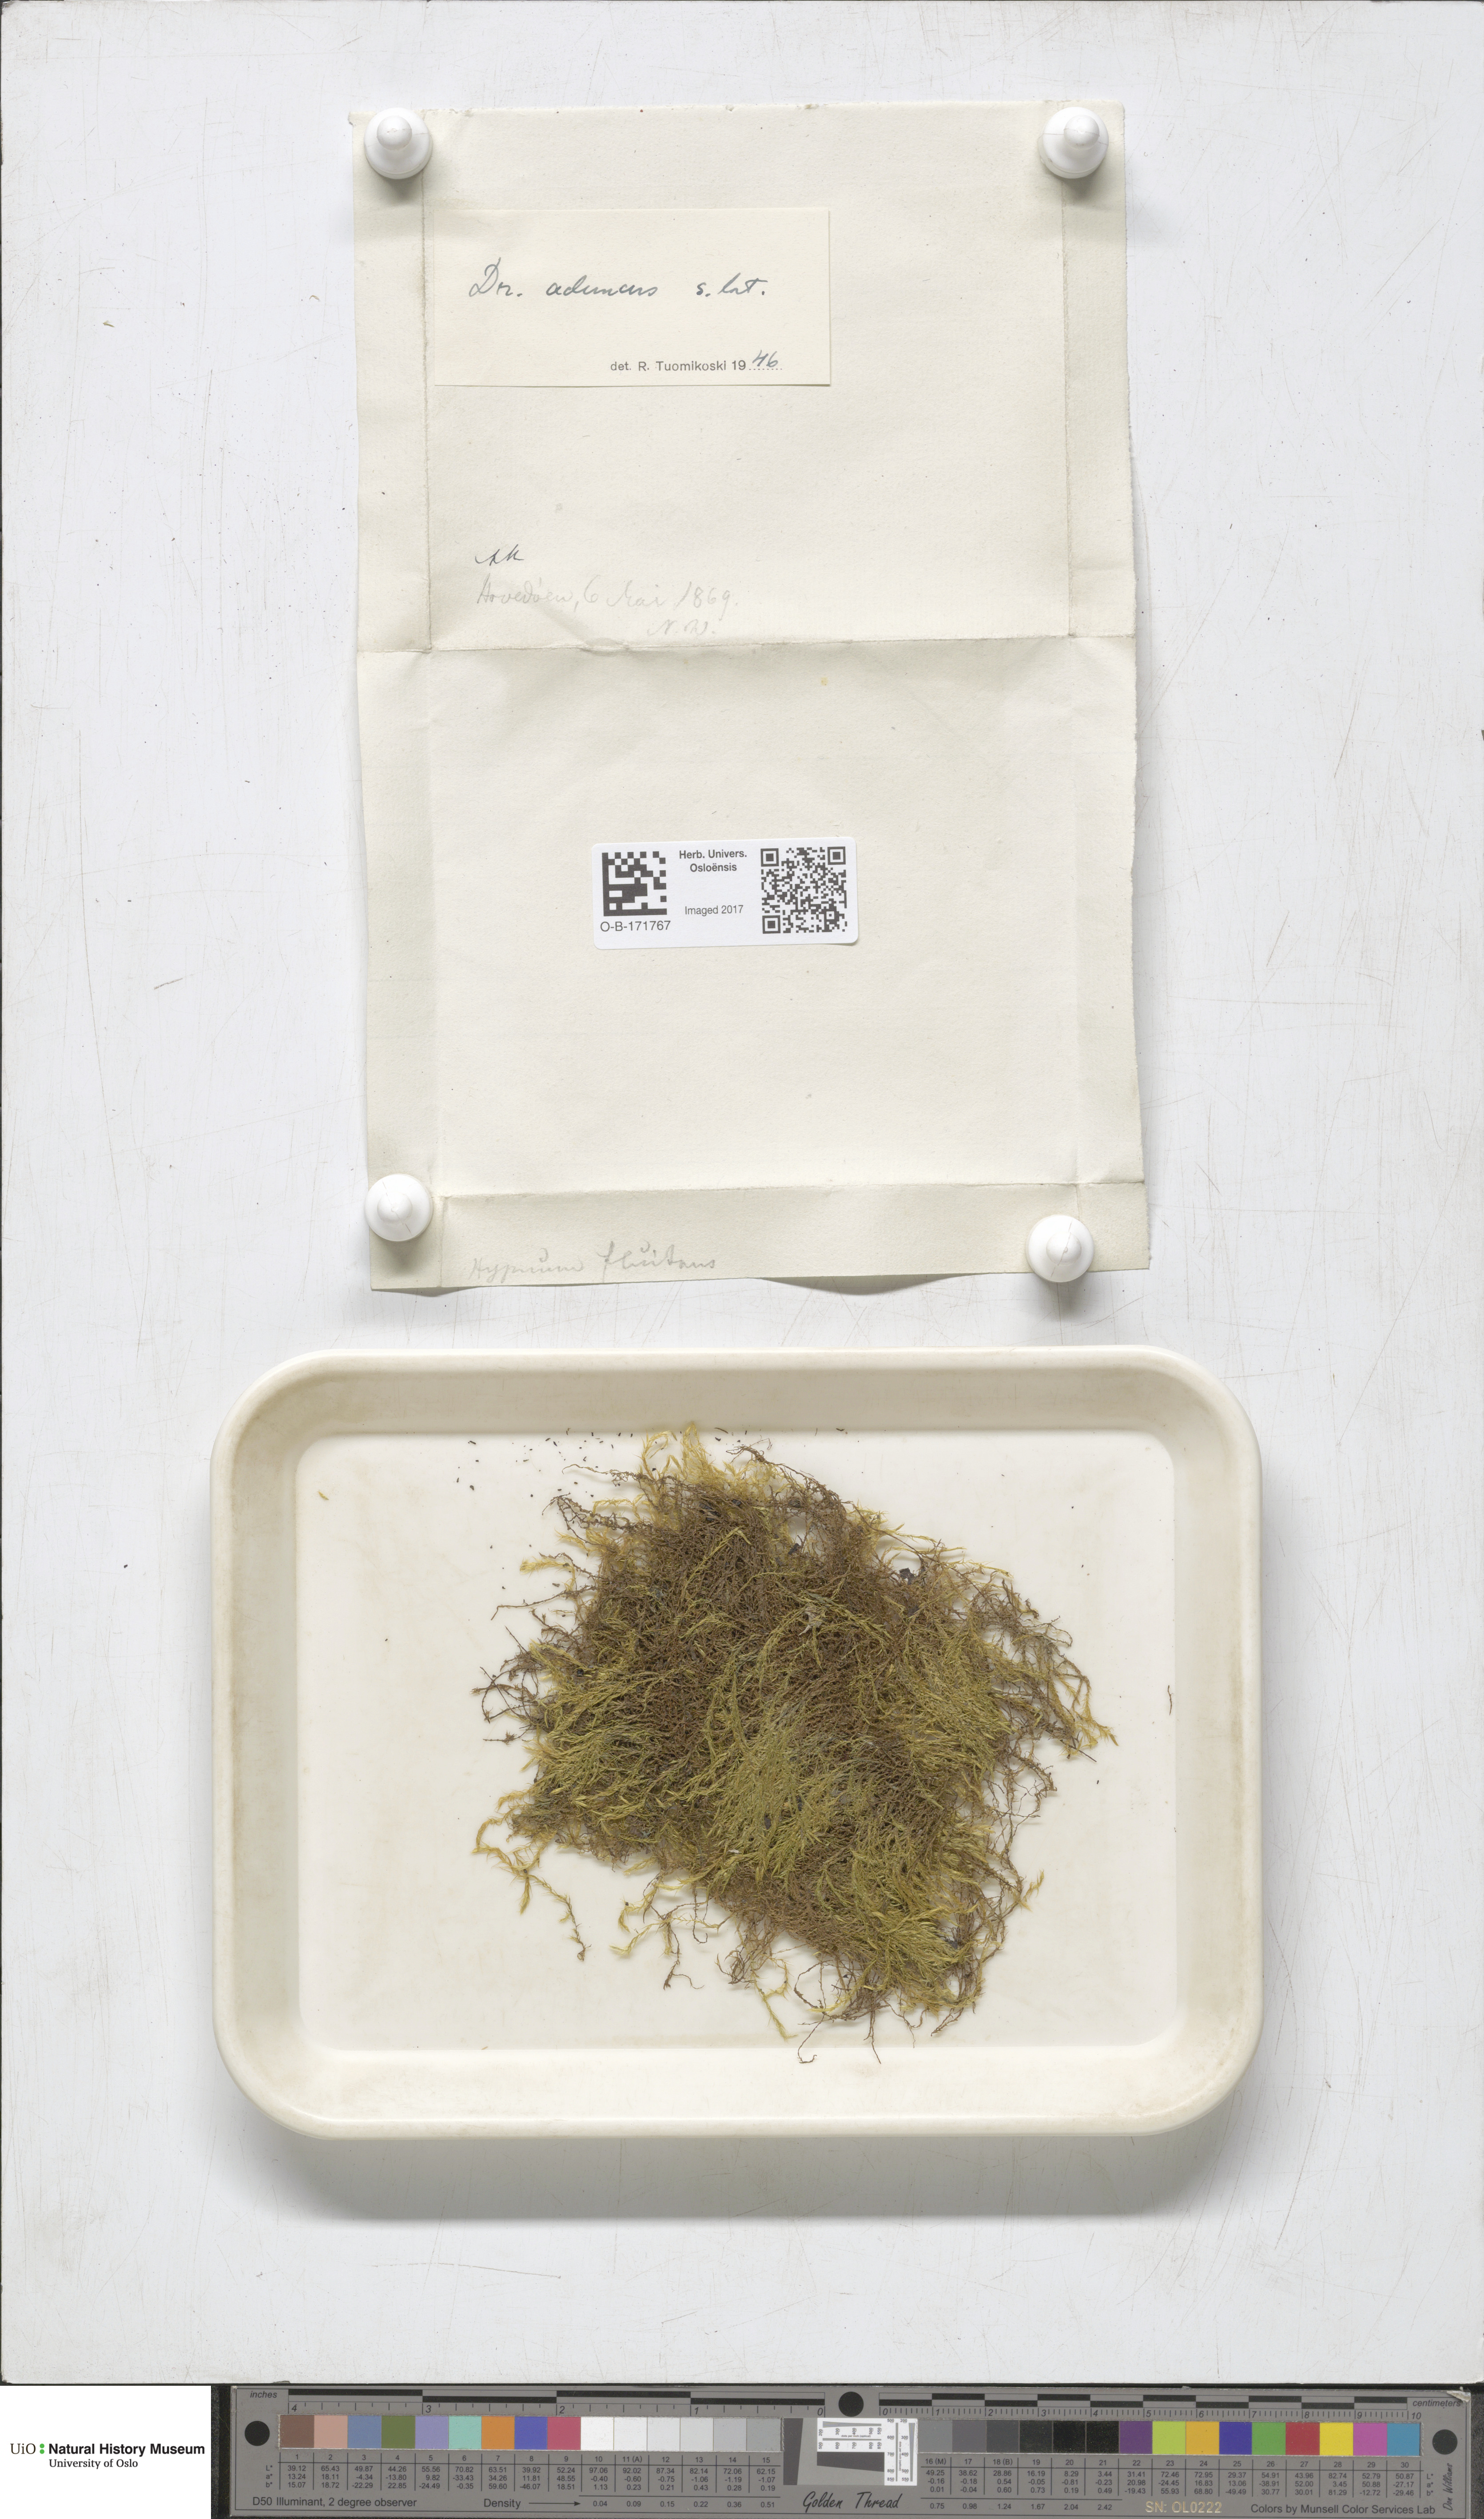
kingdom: Plantae
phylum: Bryophyta
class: Bryopsida
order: Hypnales
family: Amblystegiaceae
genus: Drepanocladus
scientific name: Drepanocladus aduncus
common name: Knieff's hook moss
